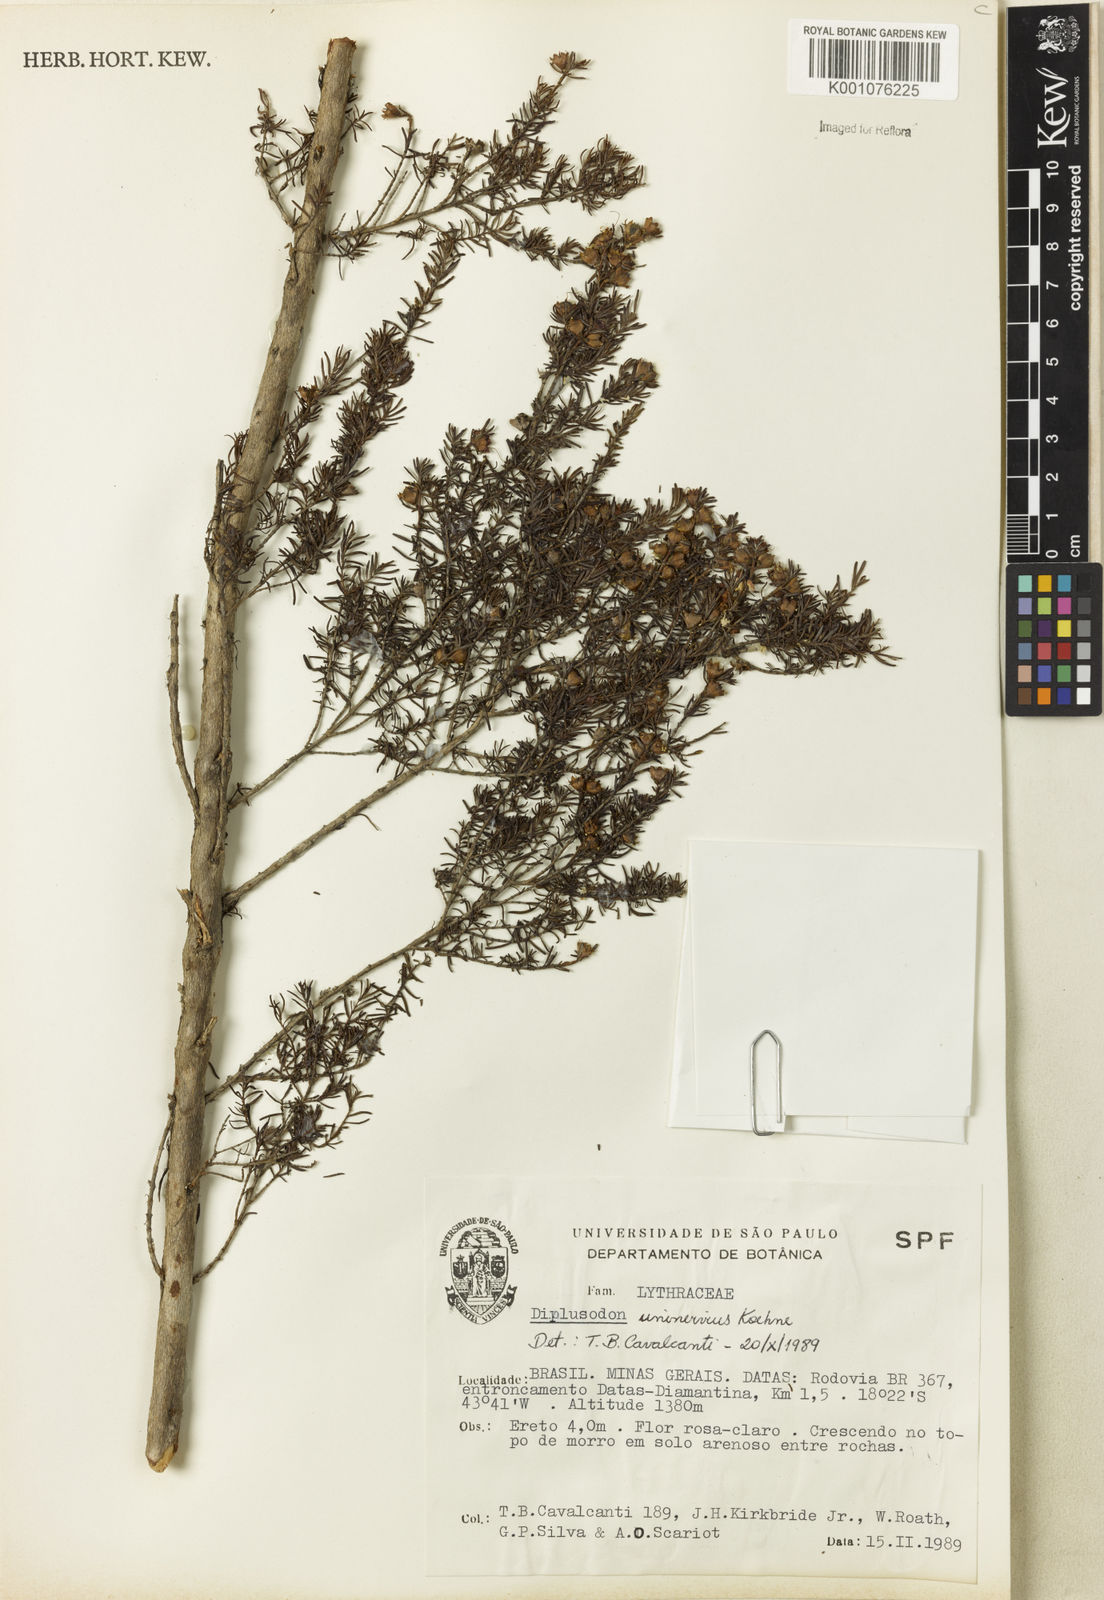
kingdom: Plantae
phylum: Tracheophyta
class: Magnoliopsida
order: Myrtales
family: Lythraceae
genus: Diplusodon
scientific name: Diplusodon uninervius
